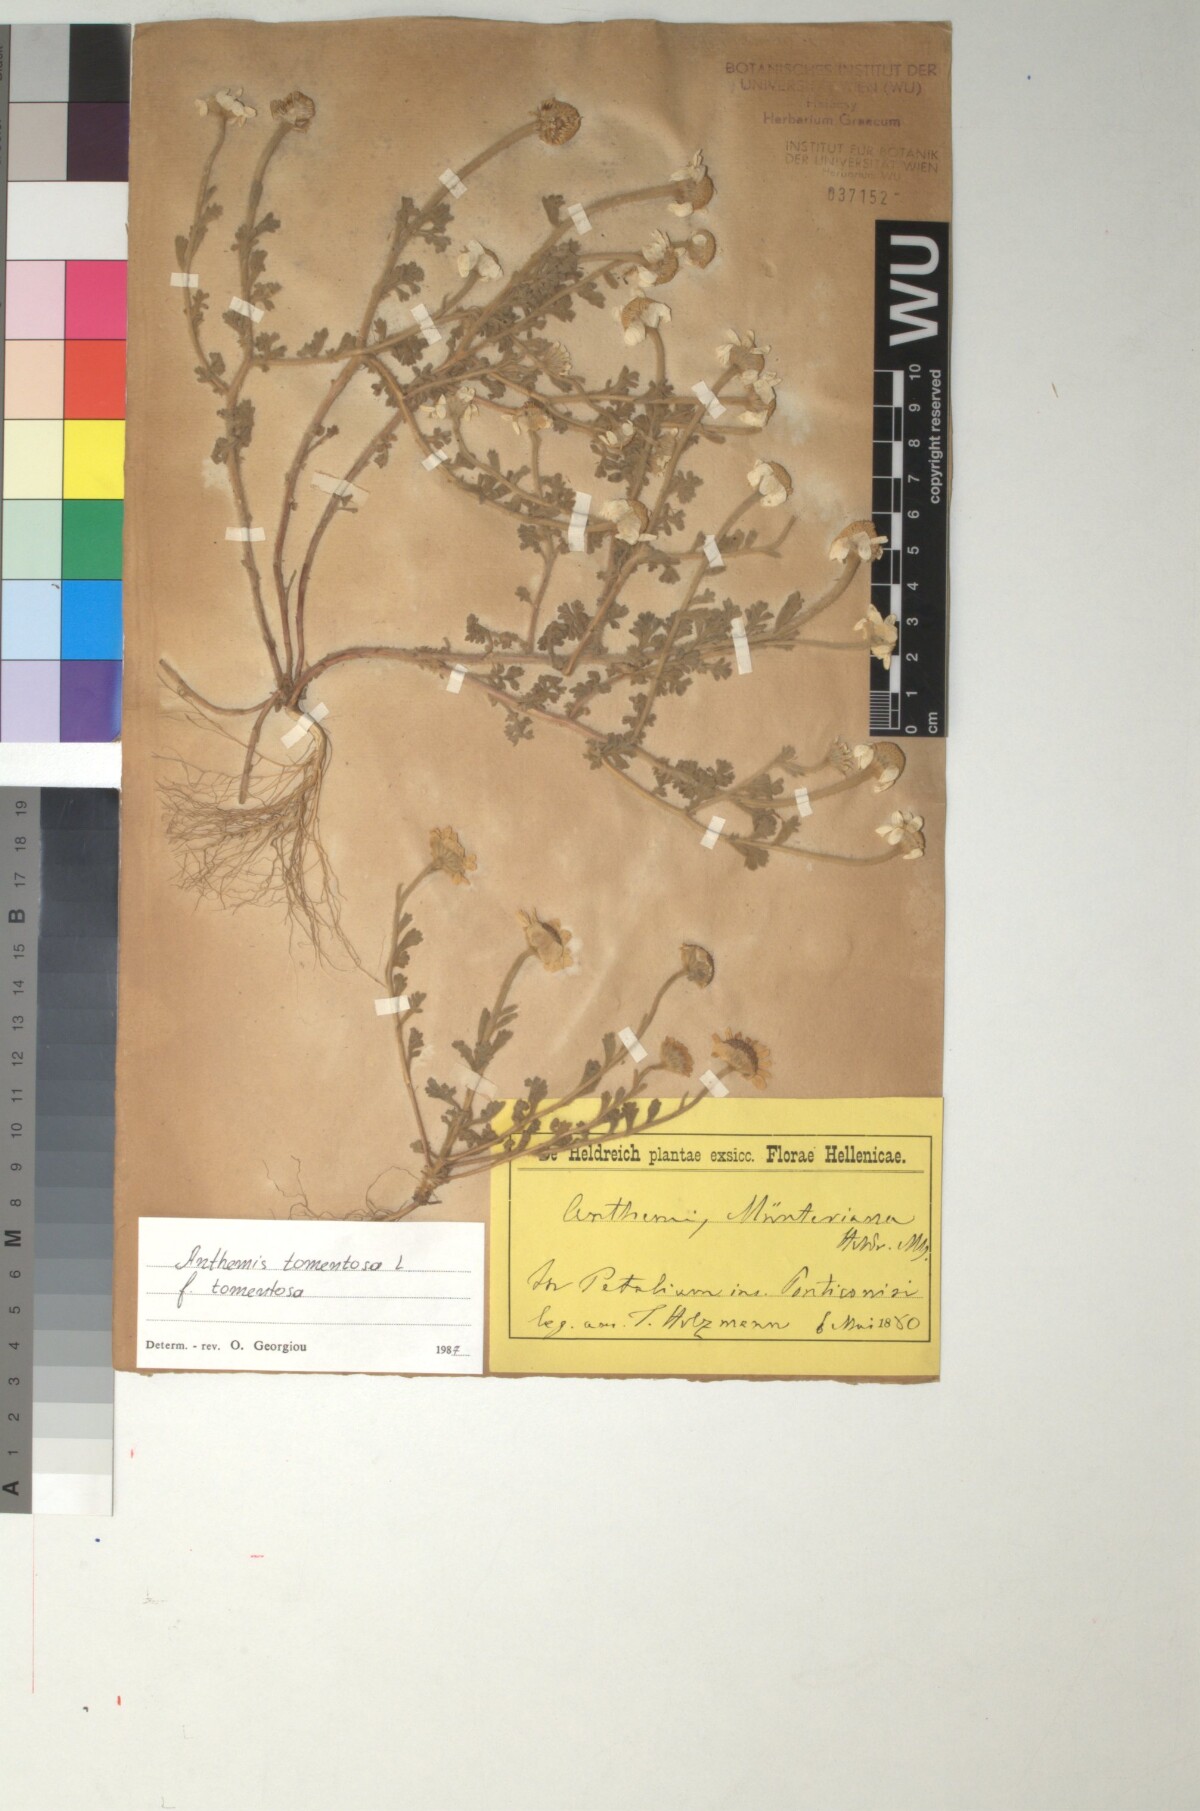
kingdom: Plantae
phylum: Tracheophyta
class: Magnoliopsida
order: Asterales
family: Asteraceae
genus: Anthemis
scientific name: Anthemis tomentosa
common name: Woolly chamomile
